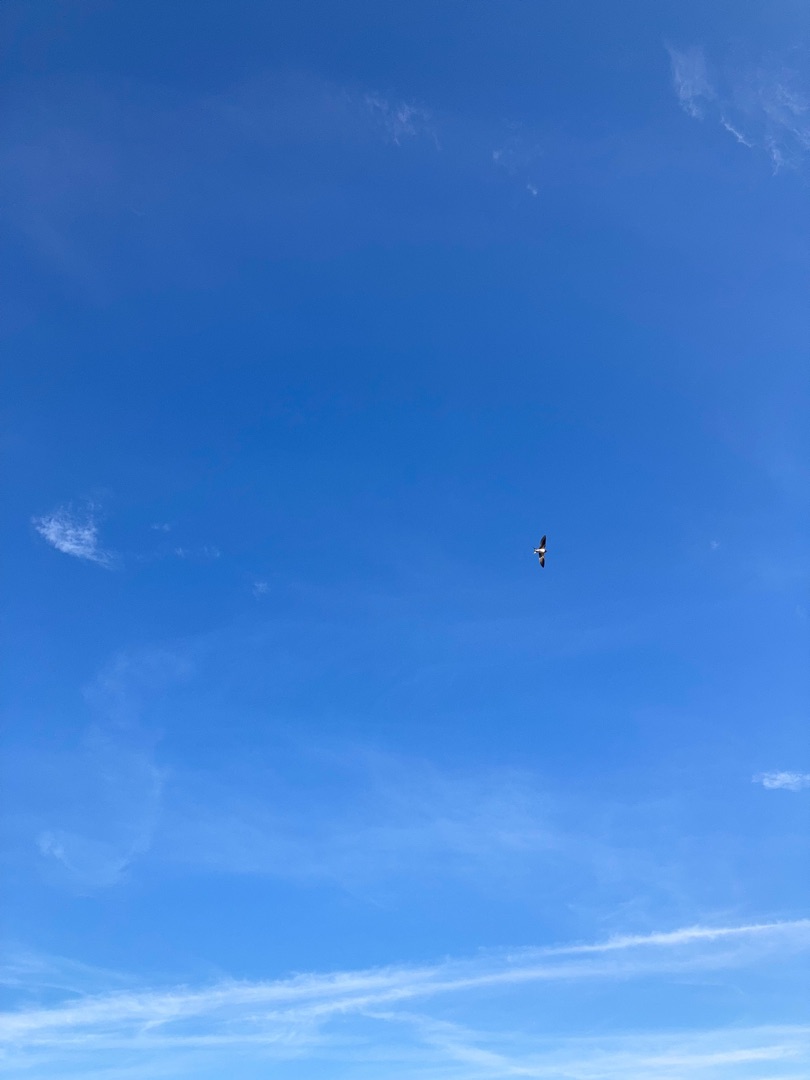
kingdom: Animalia
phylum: Chordata
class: Aves
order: Passeriformes
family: Hirundinidae
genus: Hirundo
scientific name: Hirundo rustica
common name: Landsvale
